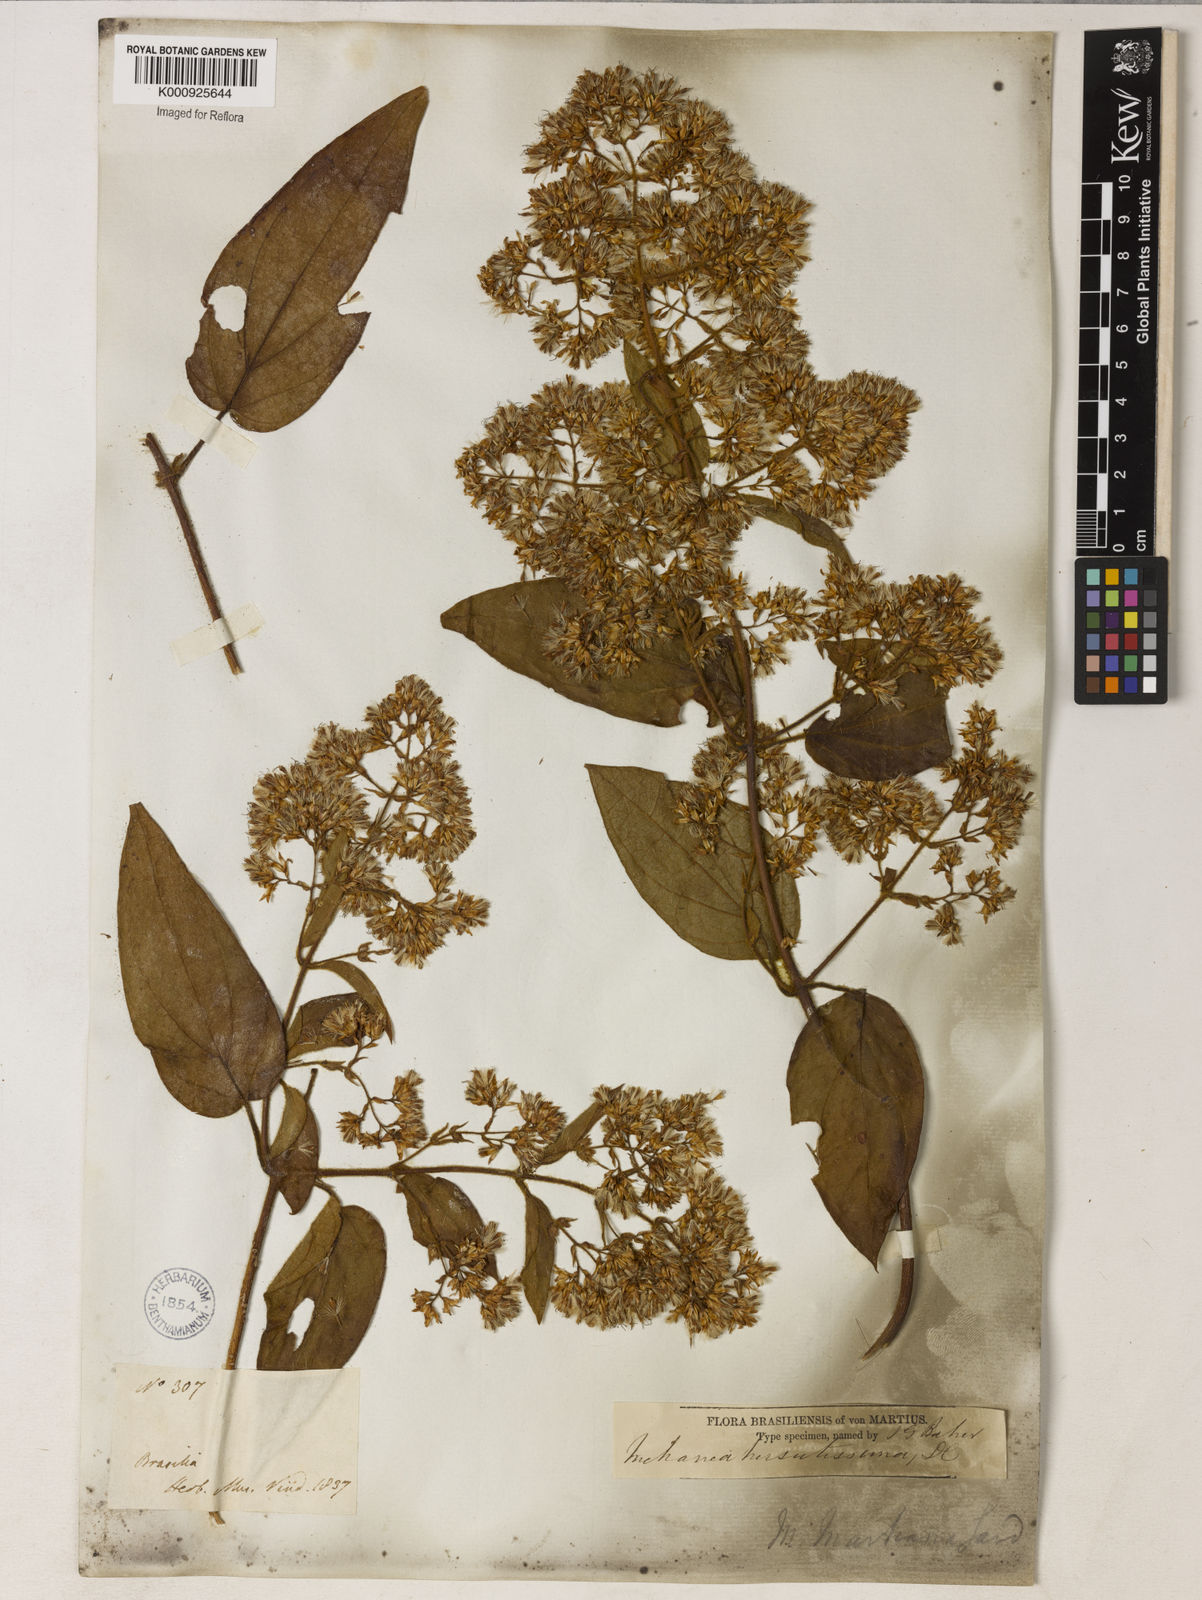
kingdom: Plantae
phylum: Tracheophyta
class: Magnoliopsida
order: Asterales
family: Asteraceae
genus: Mikania
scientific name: Mikania banisteriae
